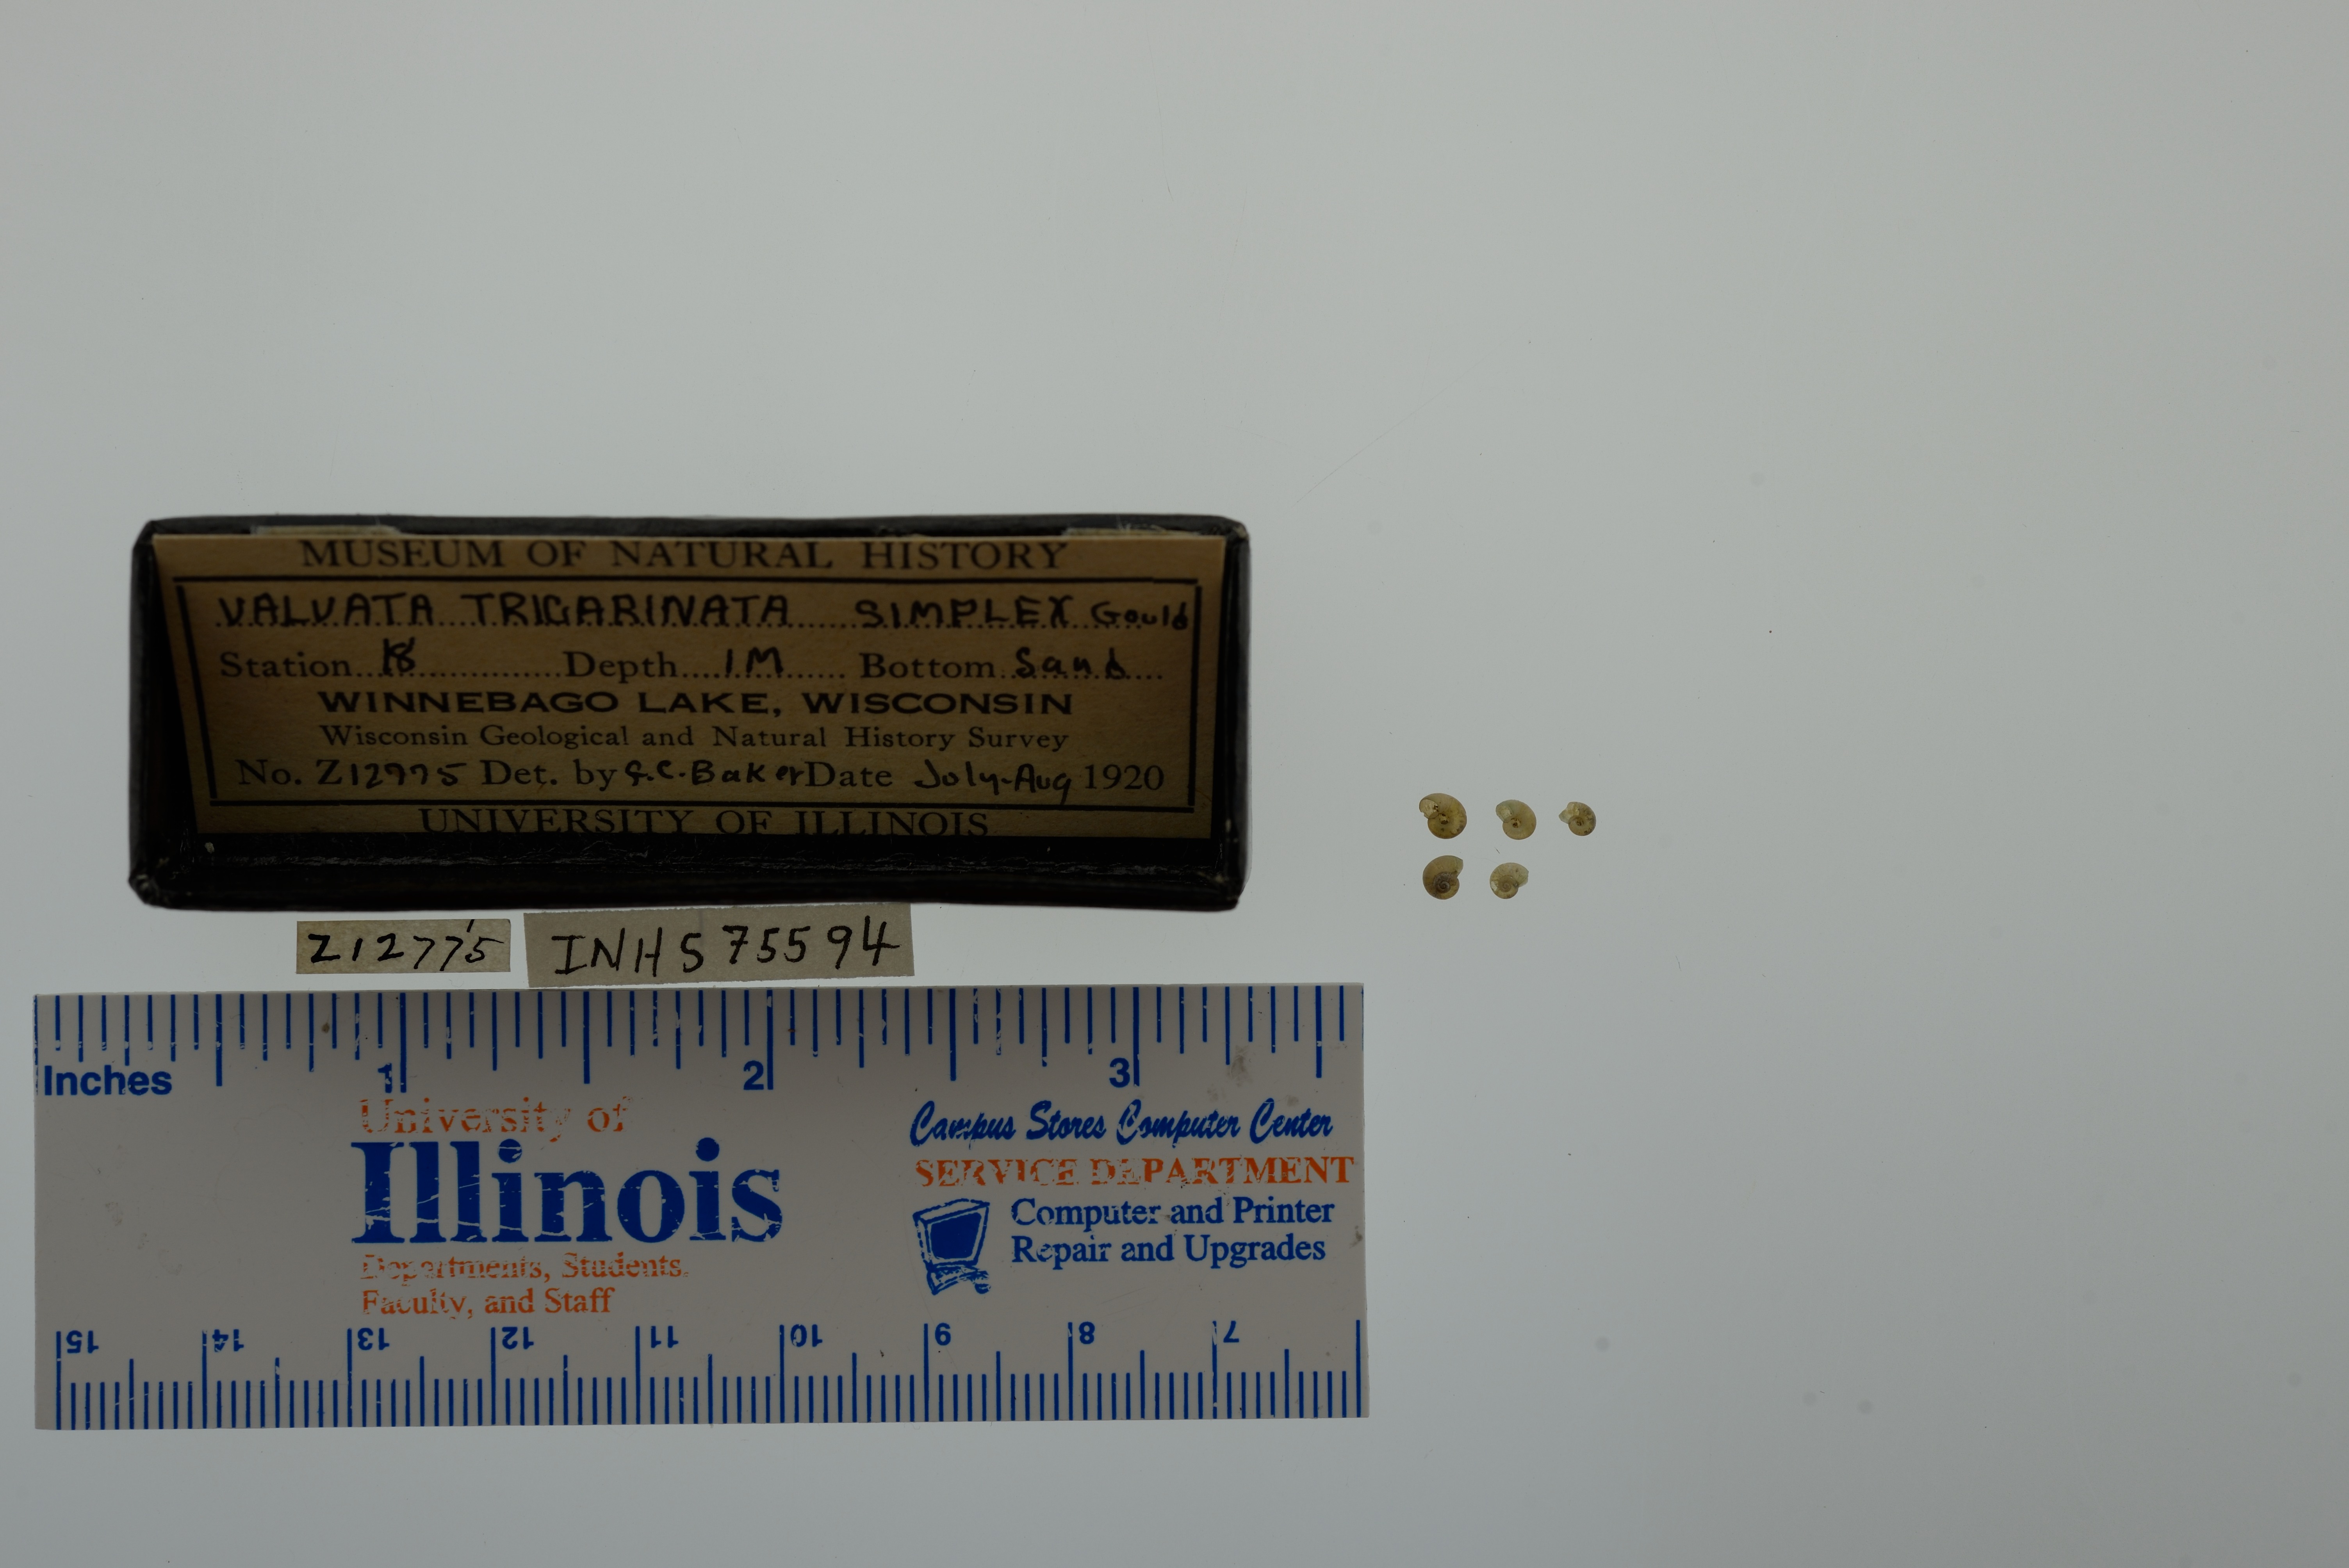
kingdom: Animalia
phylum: Mollusca
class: Gastropoda
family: Valvatidae
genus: Valvata
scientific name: Valvata tricarinata
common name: Three-ridge valvata
